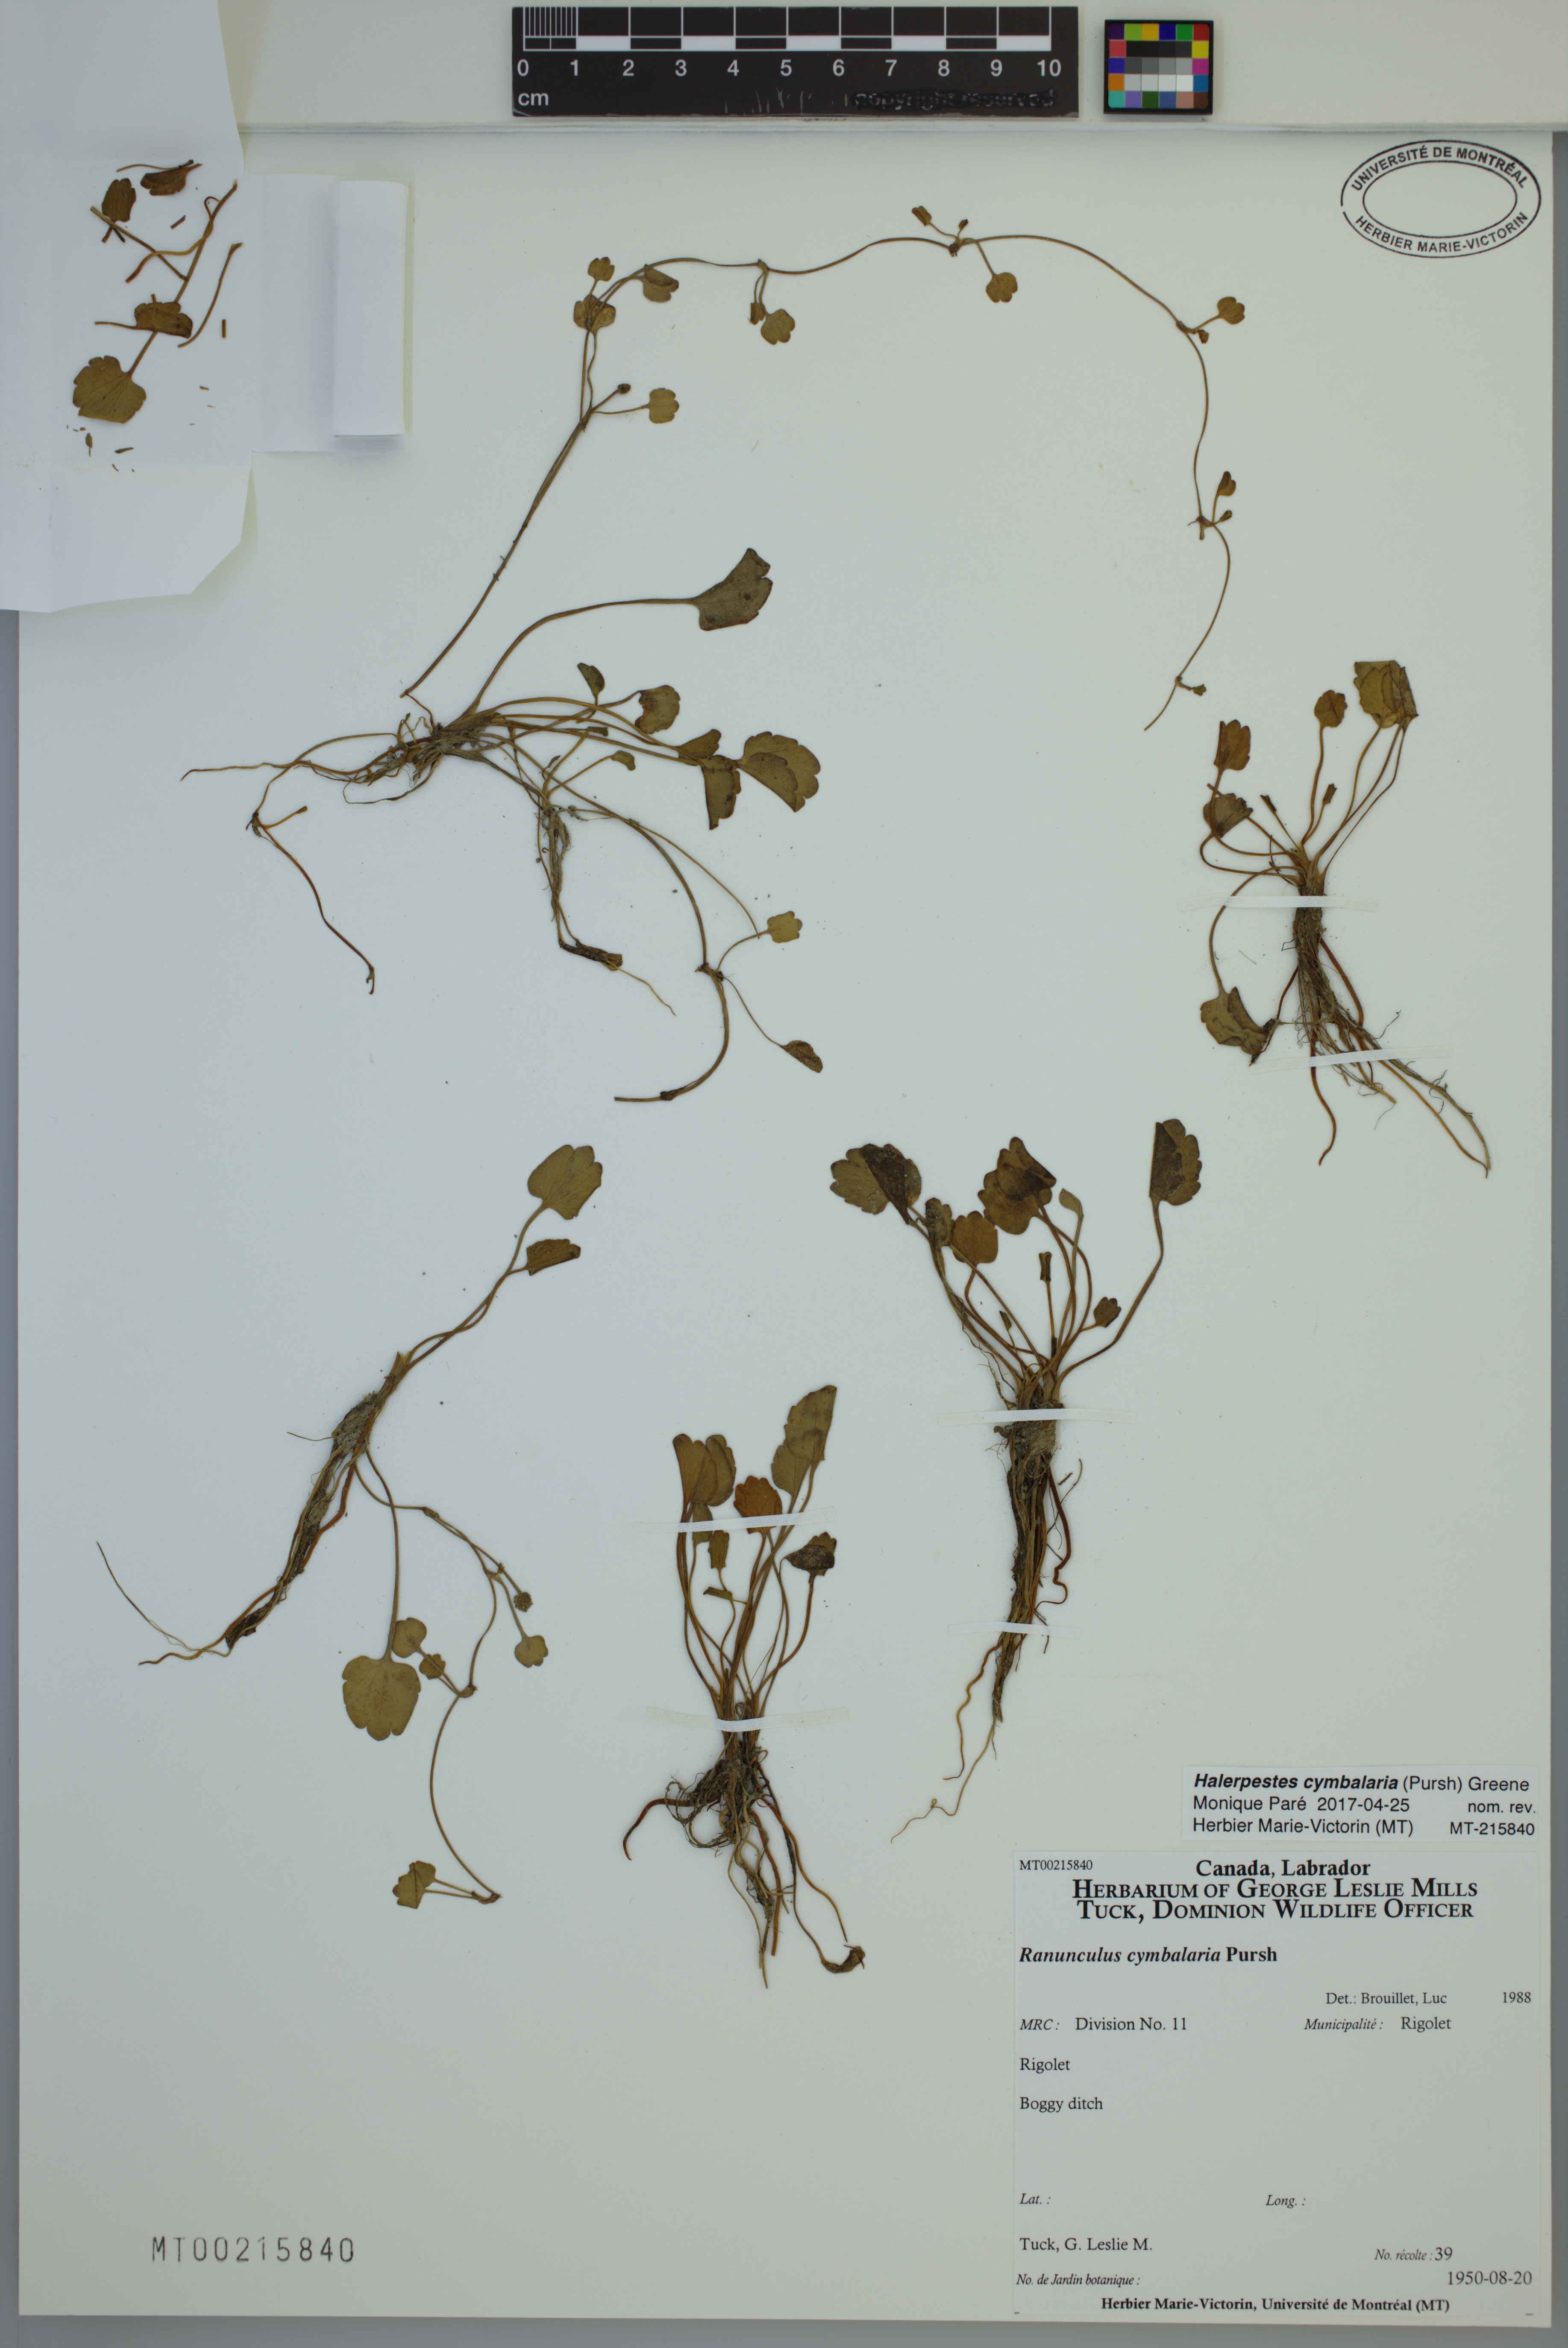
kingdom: Plantae
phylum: Tracheophyta
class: Magnoliopsida
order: Ranunculales
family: Ranunculaceae
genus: Halerpestes
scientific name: Halerpestes cymbalaria
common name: Seaside crowfoot
